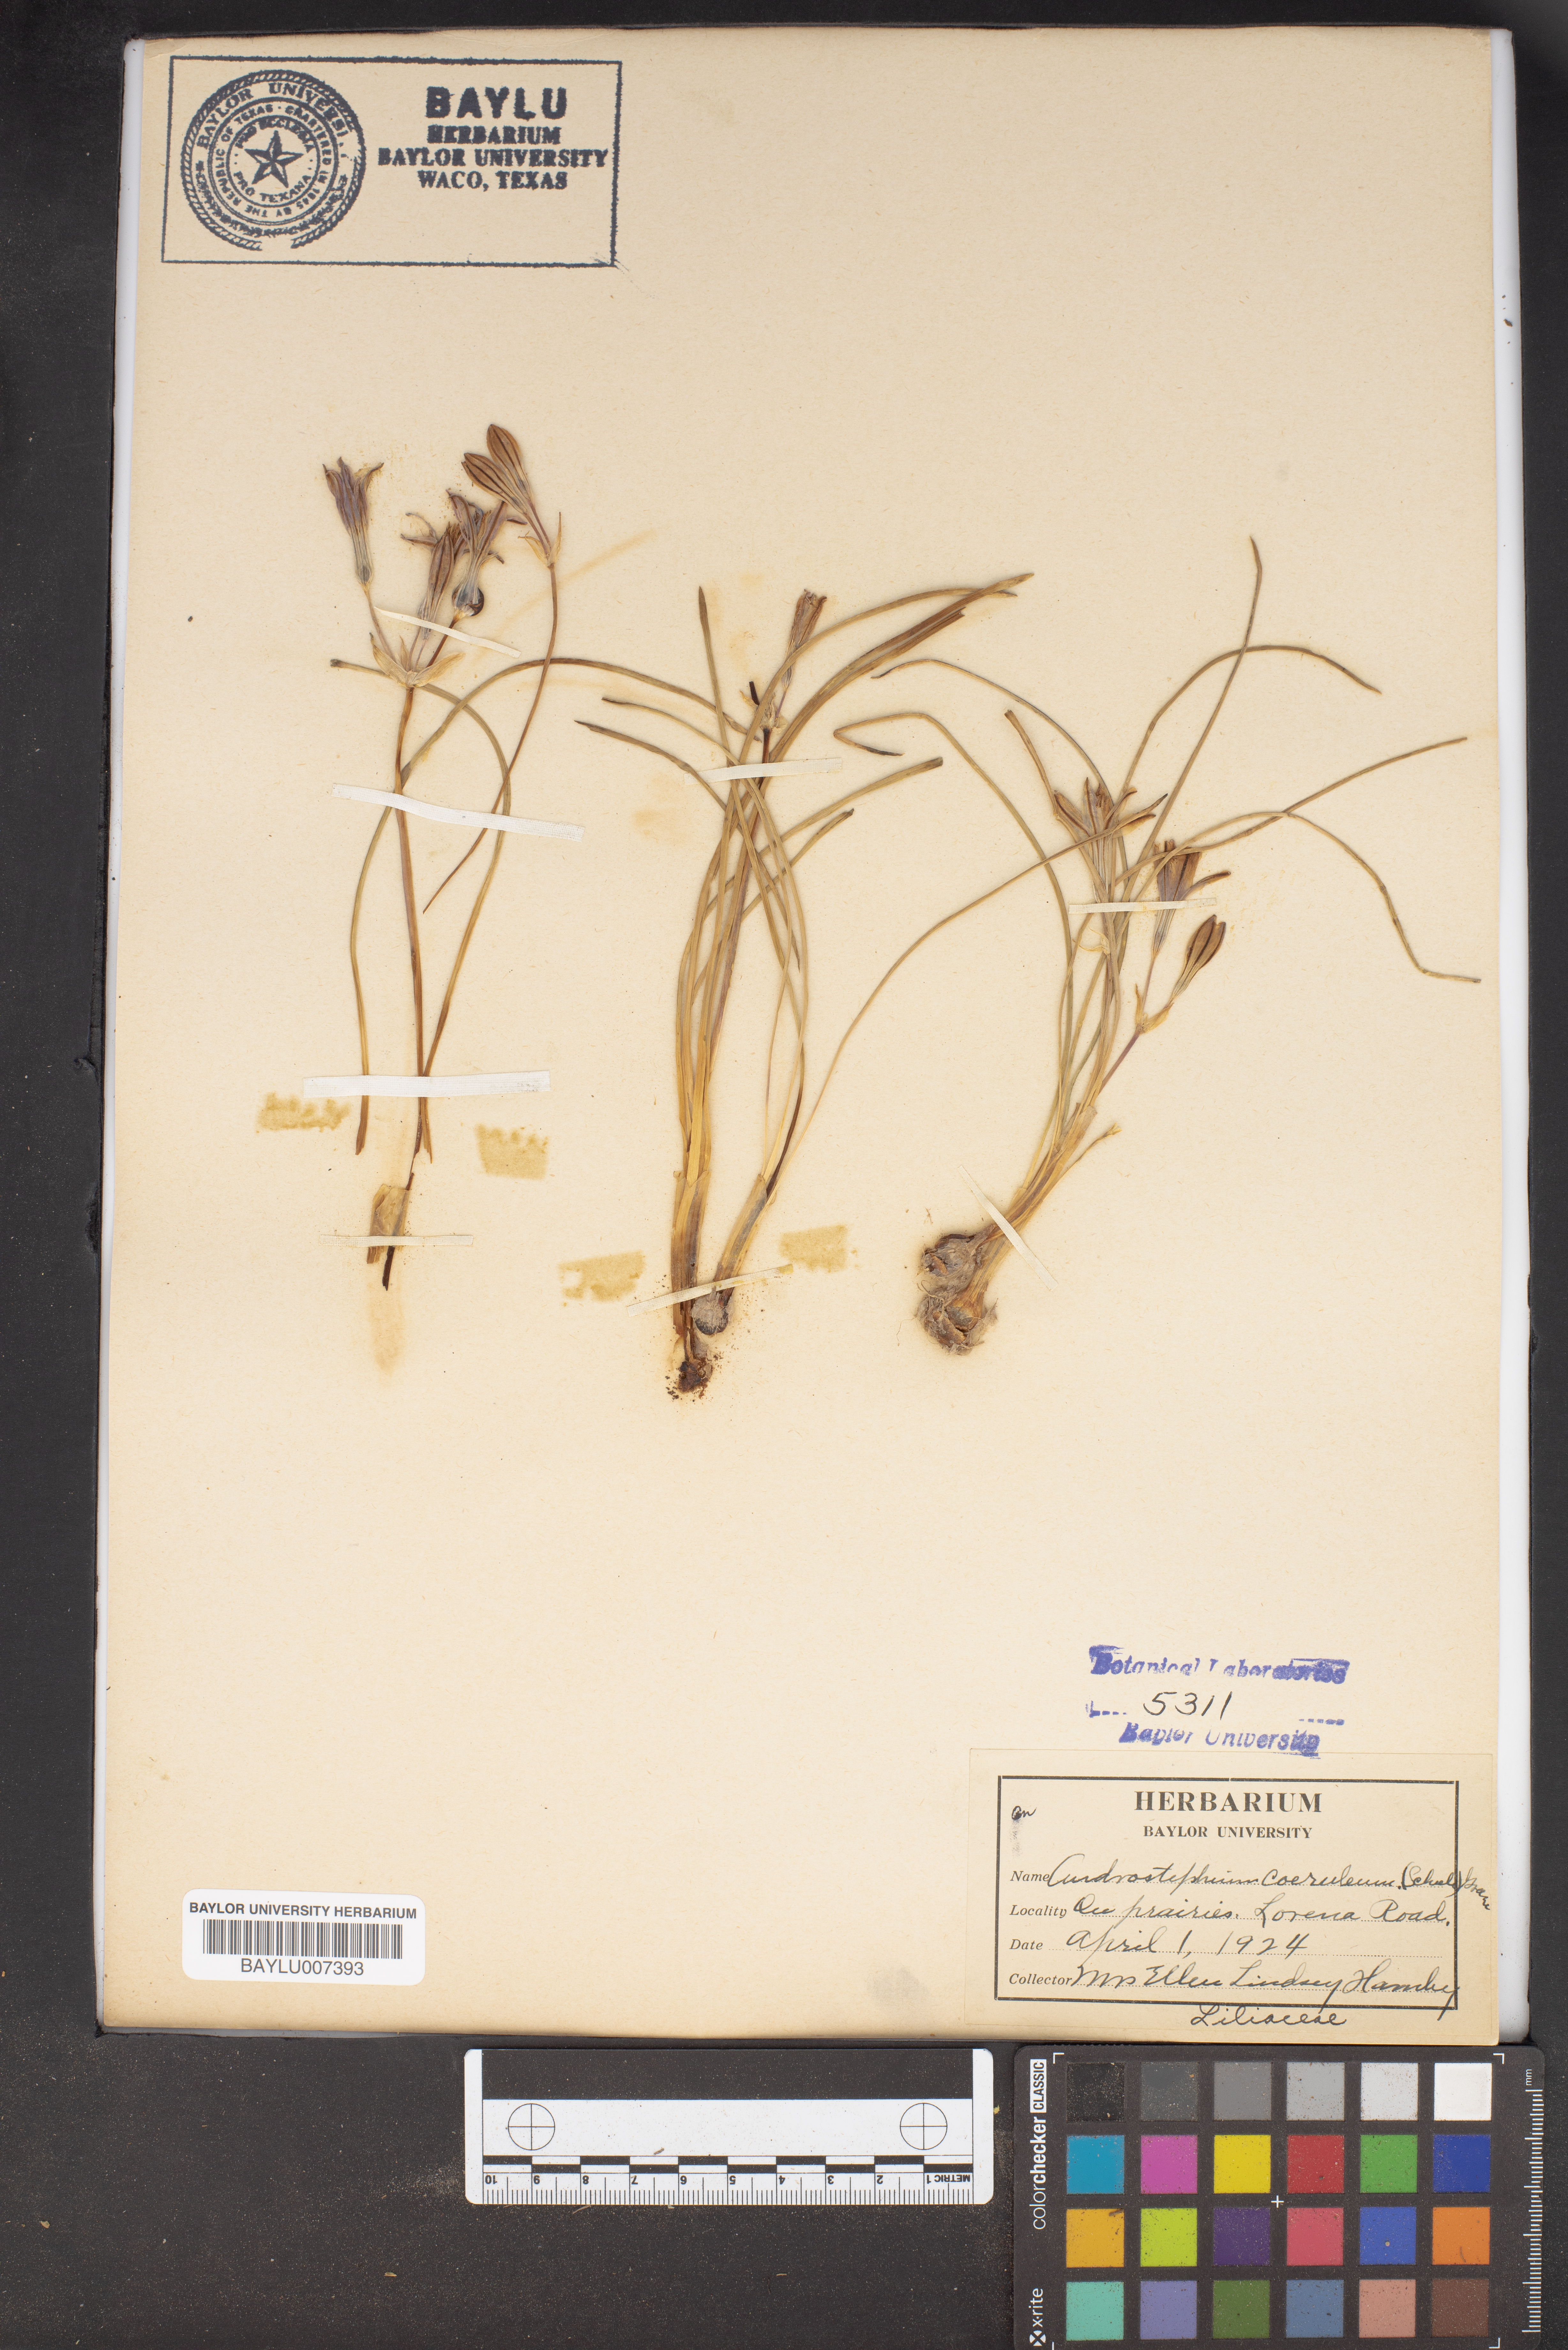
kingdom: Plantae
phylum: Tracheophyta
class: Liliopsida
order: Asparagales
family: Asparagaceae
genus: Androstephium
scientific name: Androstephium coeruleum
